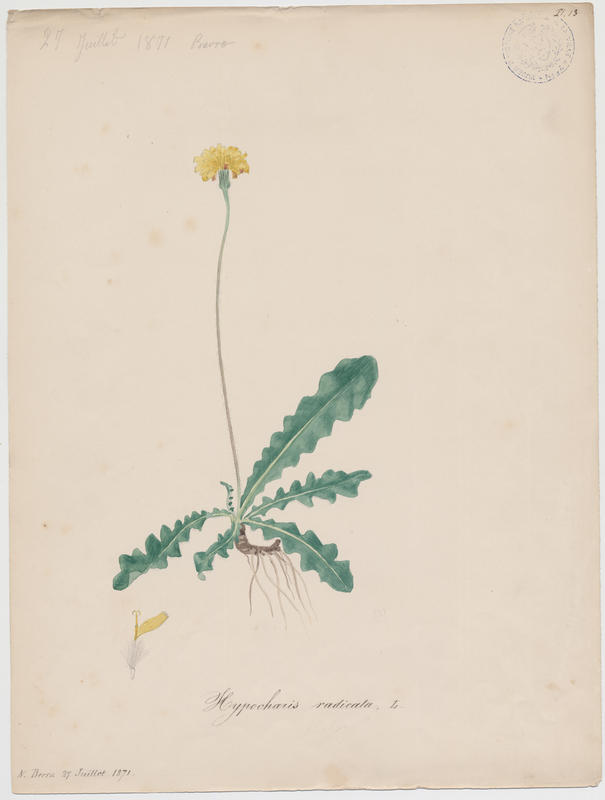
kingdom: Plantae
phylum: Tracheophyta
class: Magnoliopsida
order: Asterales
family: Asteraceae
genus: Hypochoeris
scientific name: Hypochoeris radicata
